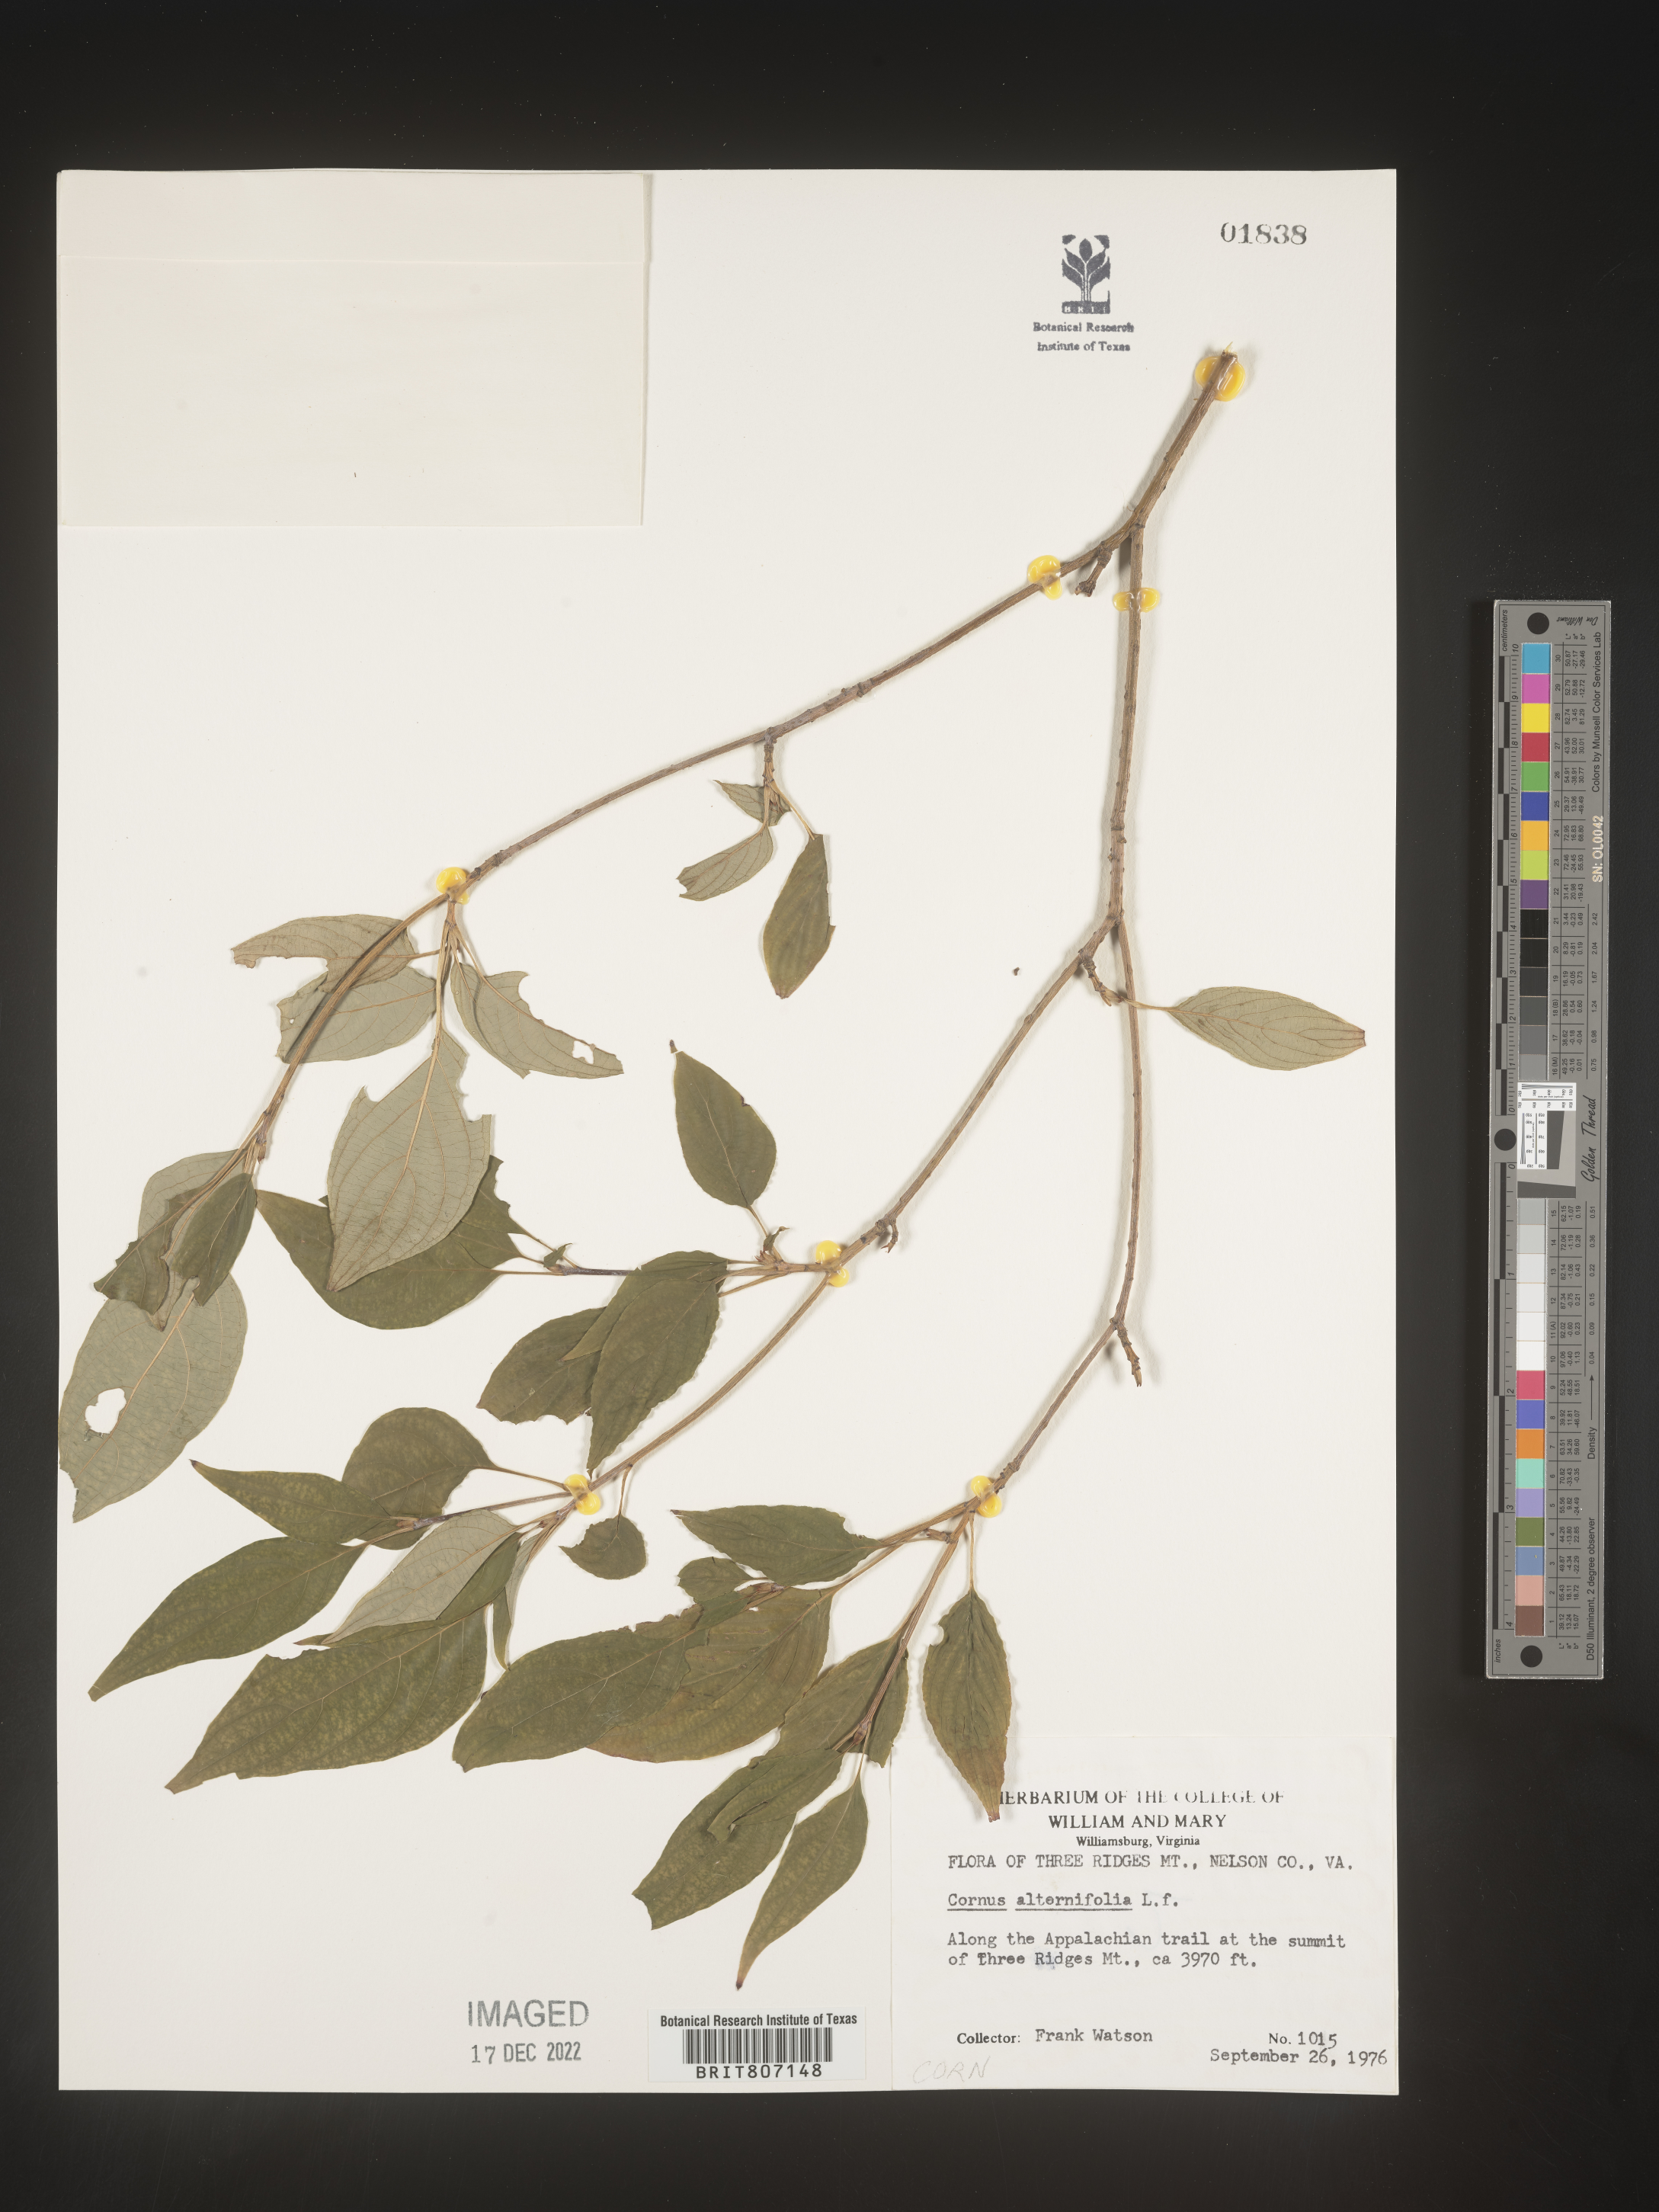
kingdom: Plantae
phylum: Tracheophyta
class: Magnoliopsida
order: Cornales
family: Cornaceae
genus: Cornus
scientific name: Cornus alternifolia
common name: Pagoda dogwood
